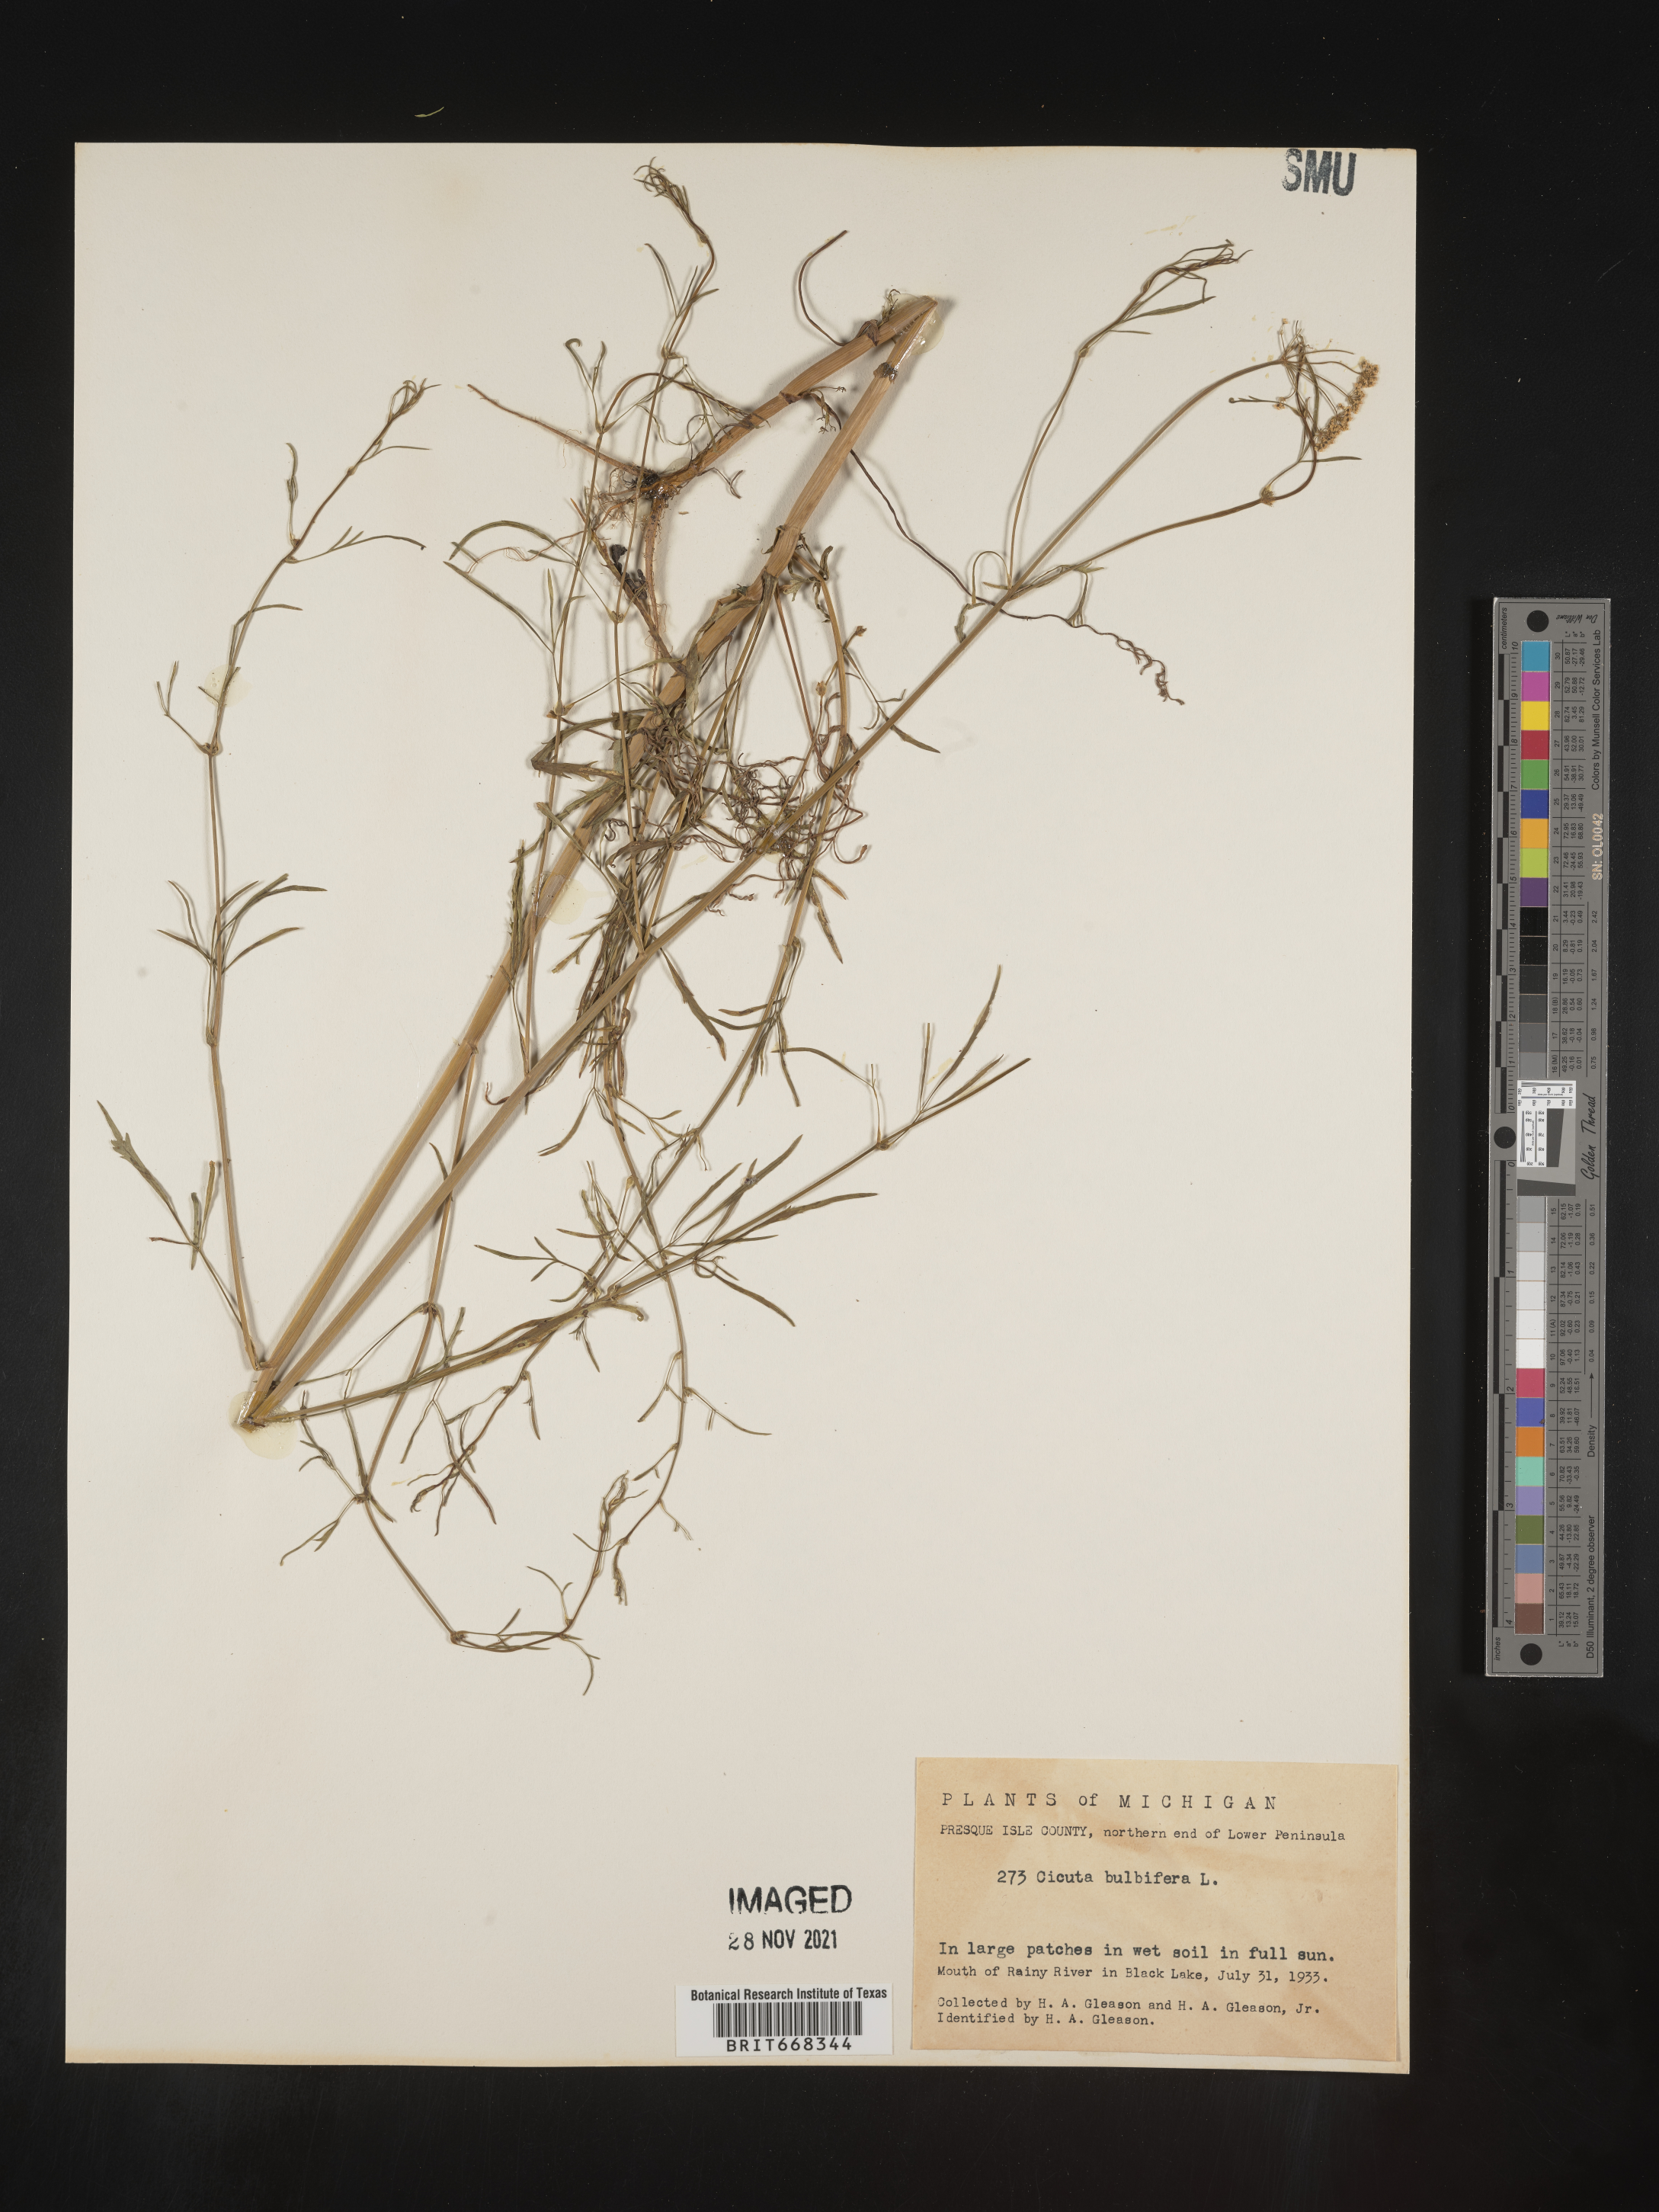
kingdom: Plantae
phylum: Tracheophyta
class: Magnoliopsida
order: Apiales
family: Apiaceae
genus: Cicuta
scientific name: Cicuta
